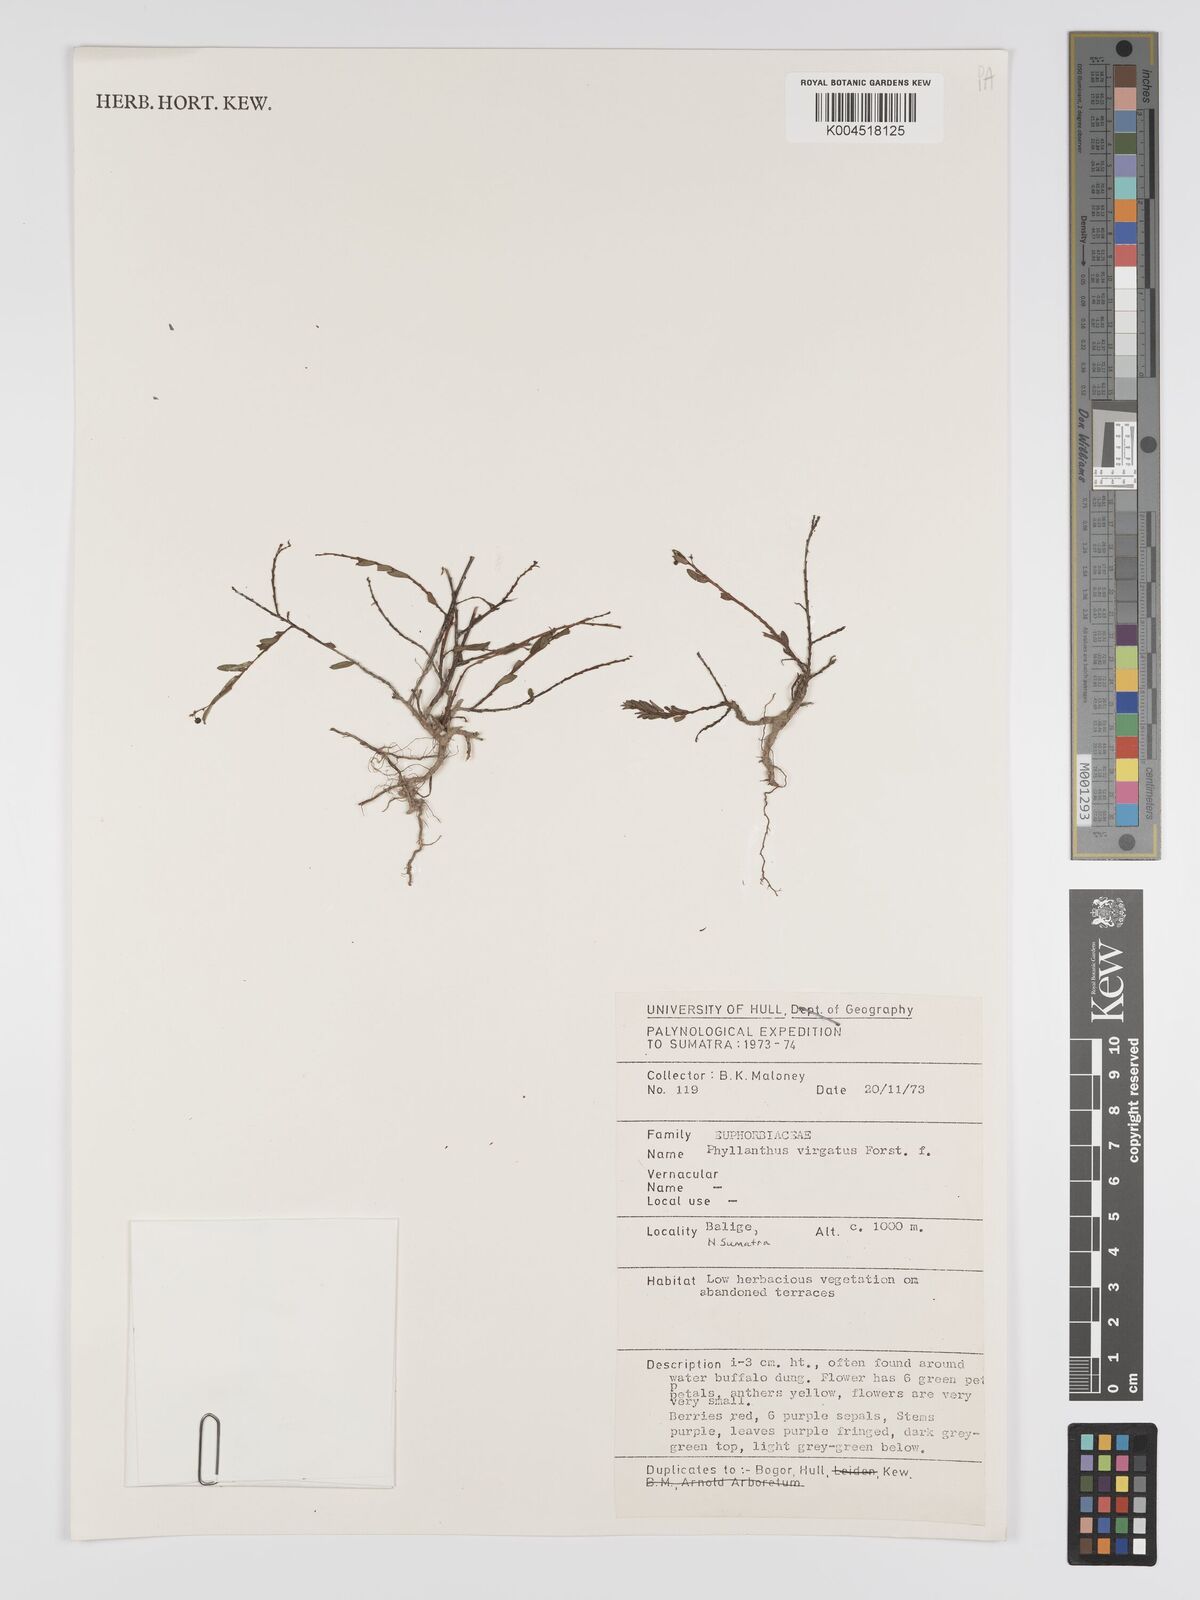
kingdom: Plantae
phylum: Tracheophyta
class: Magnoliopsida
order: Malpighiales
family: Phyllanthaceae
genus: Phyllanthus
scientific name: Phyllanthus virgatus
